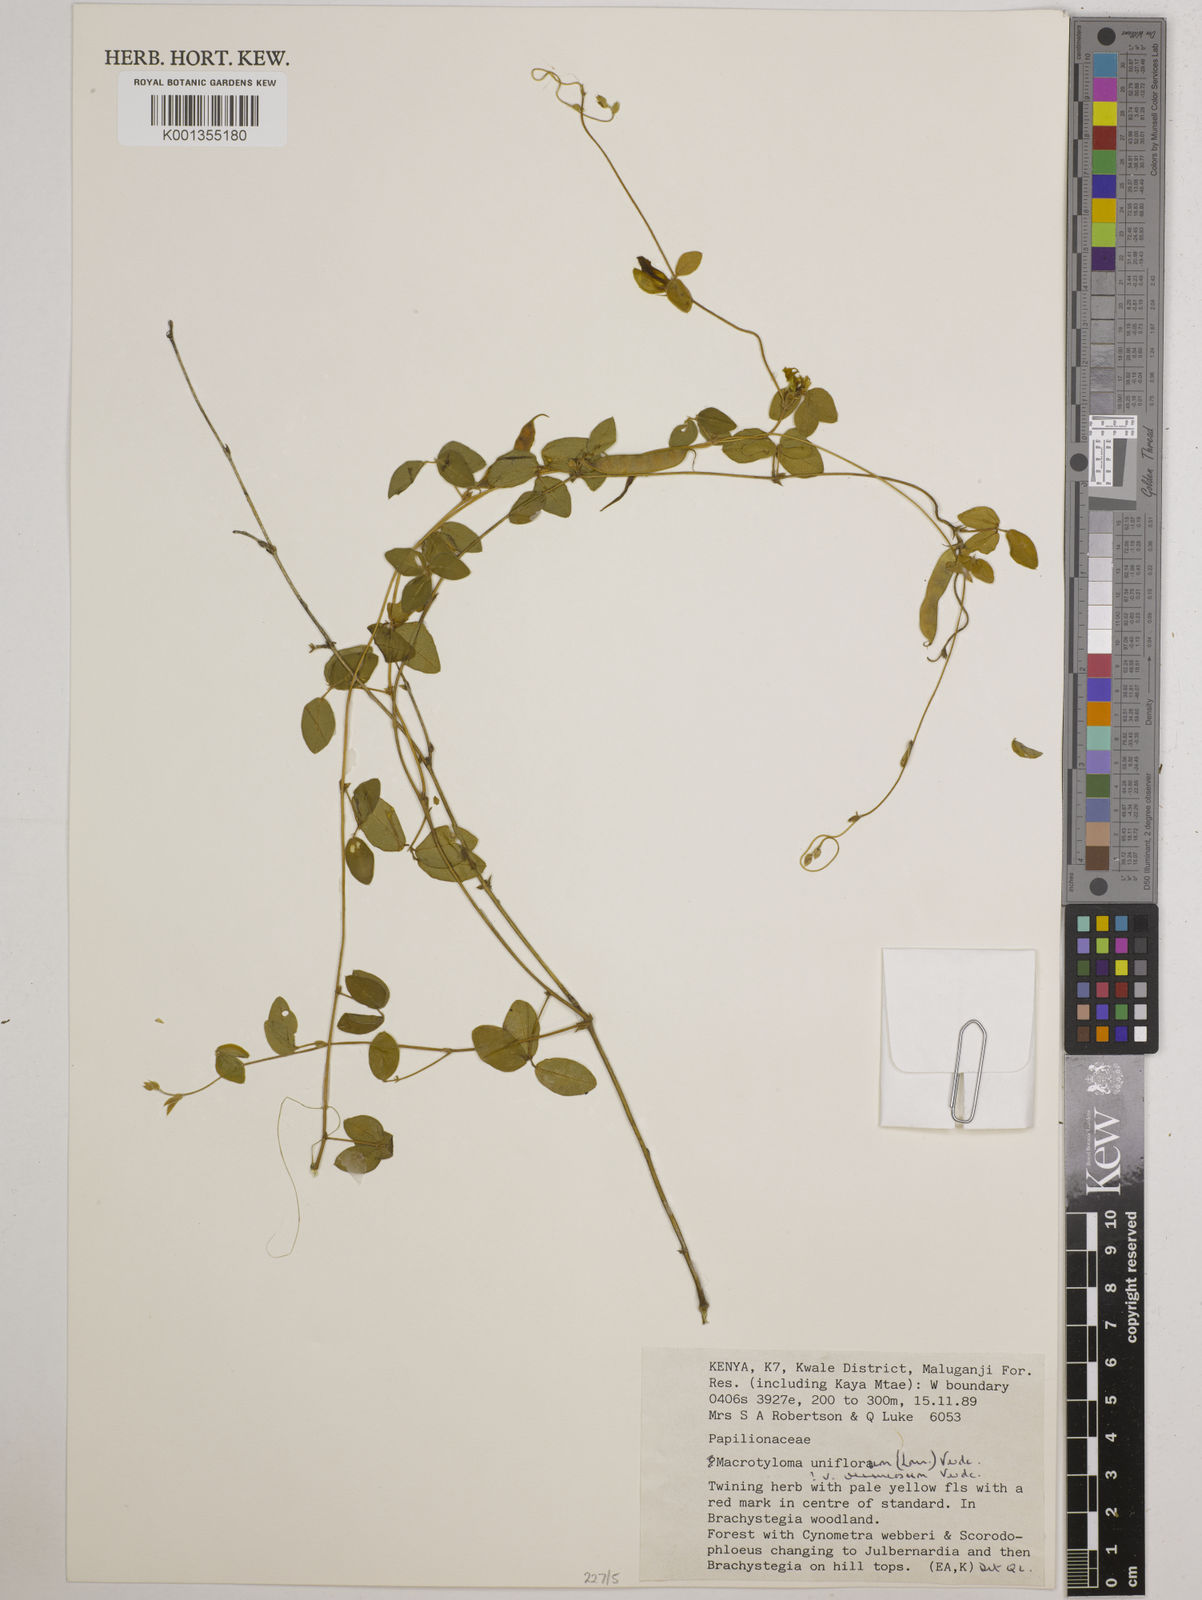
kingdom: Plantae
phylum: Tracheophyta
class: Magnoliopsida
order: Fabales
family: Fabaceae
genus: Macrotyloma
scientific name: Macrotyloma
